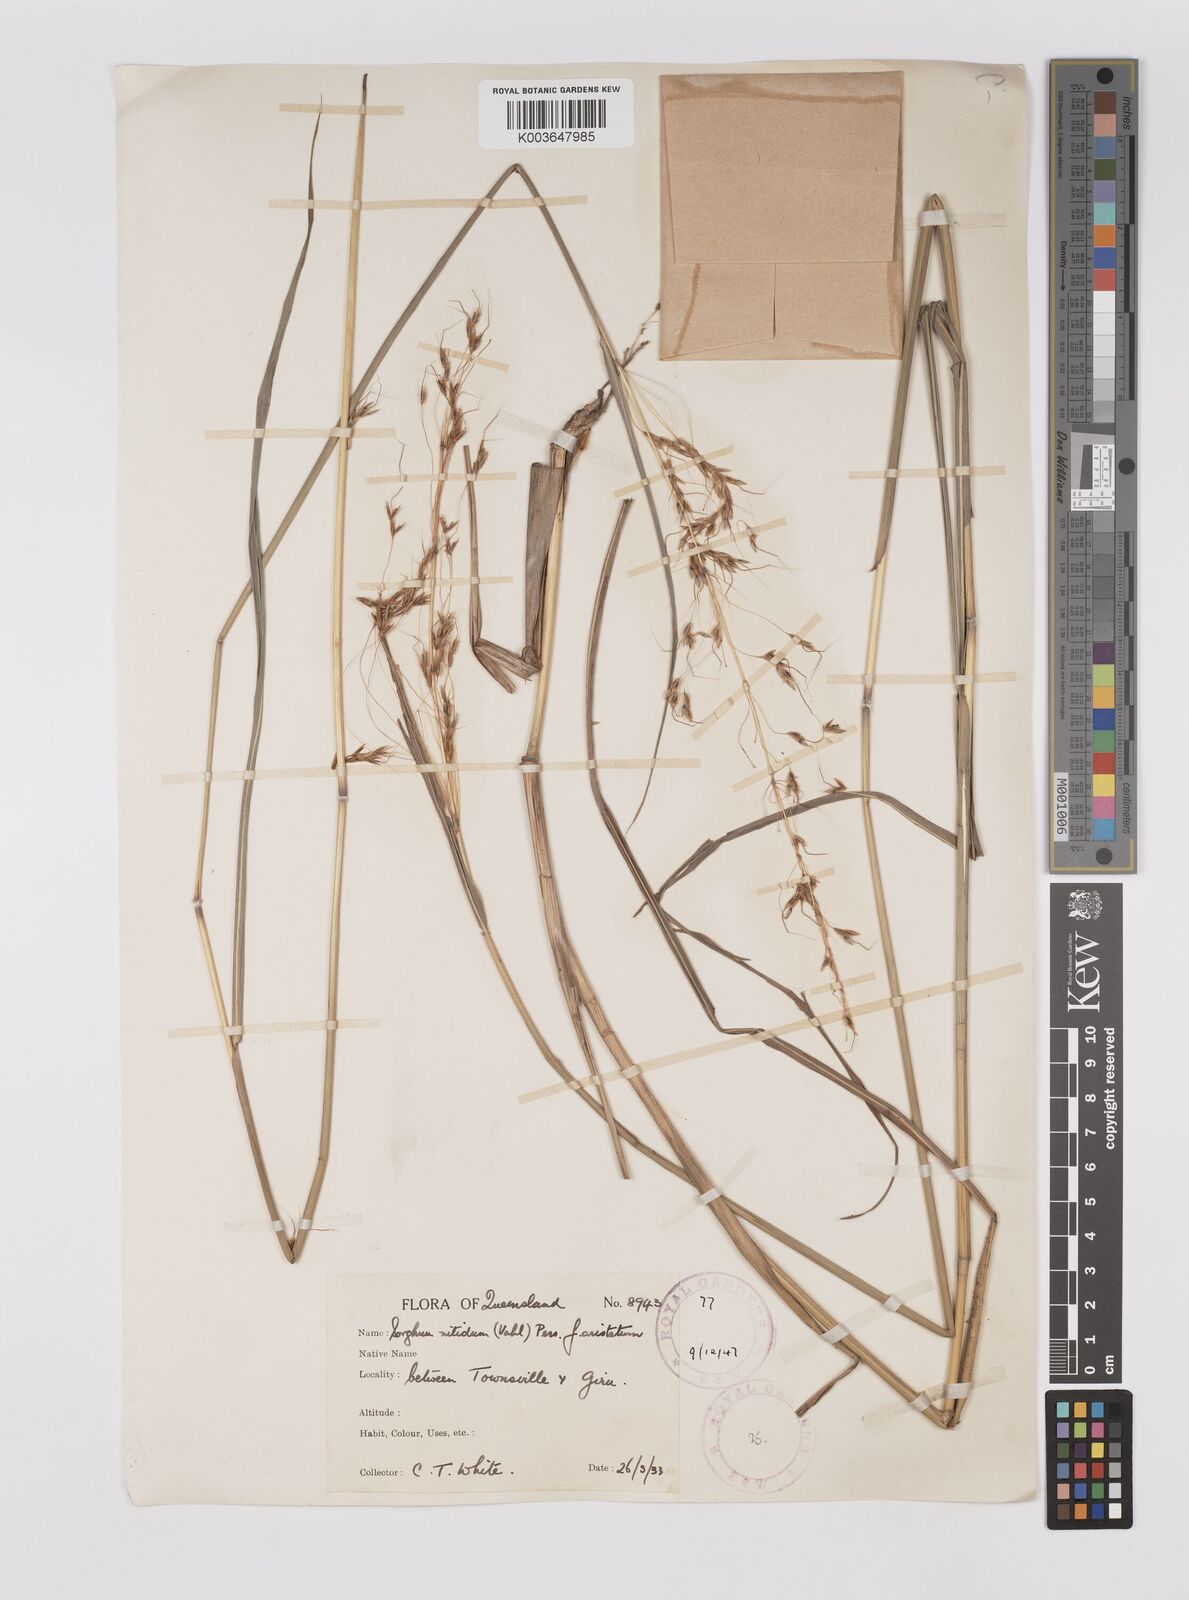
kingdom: Plantae
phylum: Tracheophyta
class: Liliopsida
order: Poales
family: Poaceae
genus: Sorghum
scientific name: Sorghum nitidum
